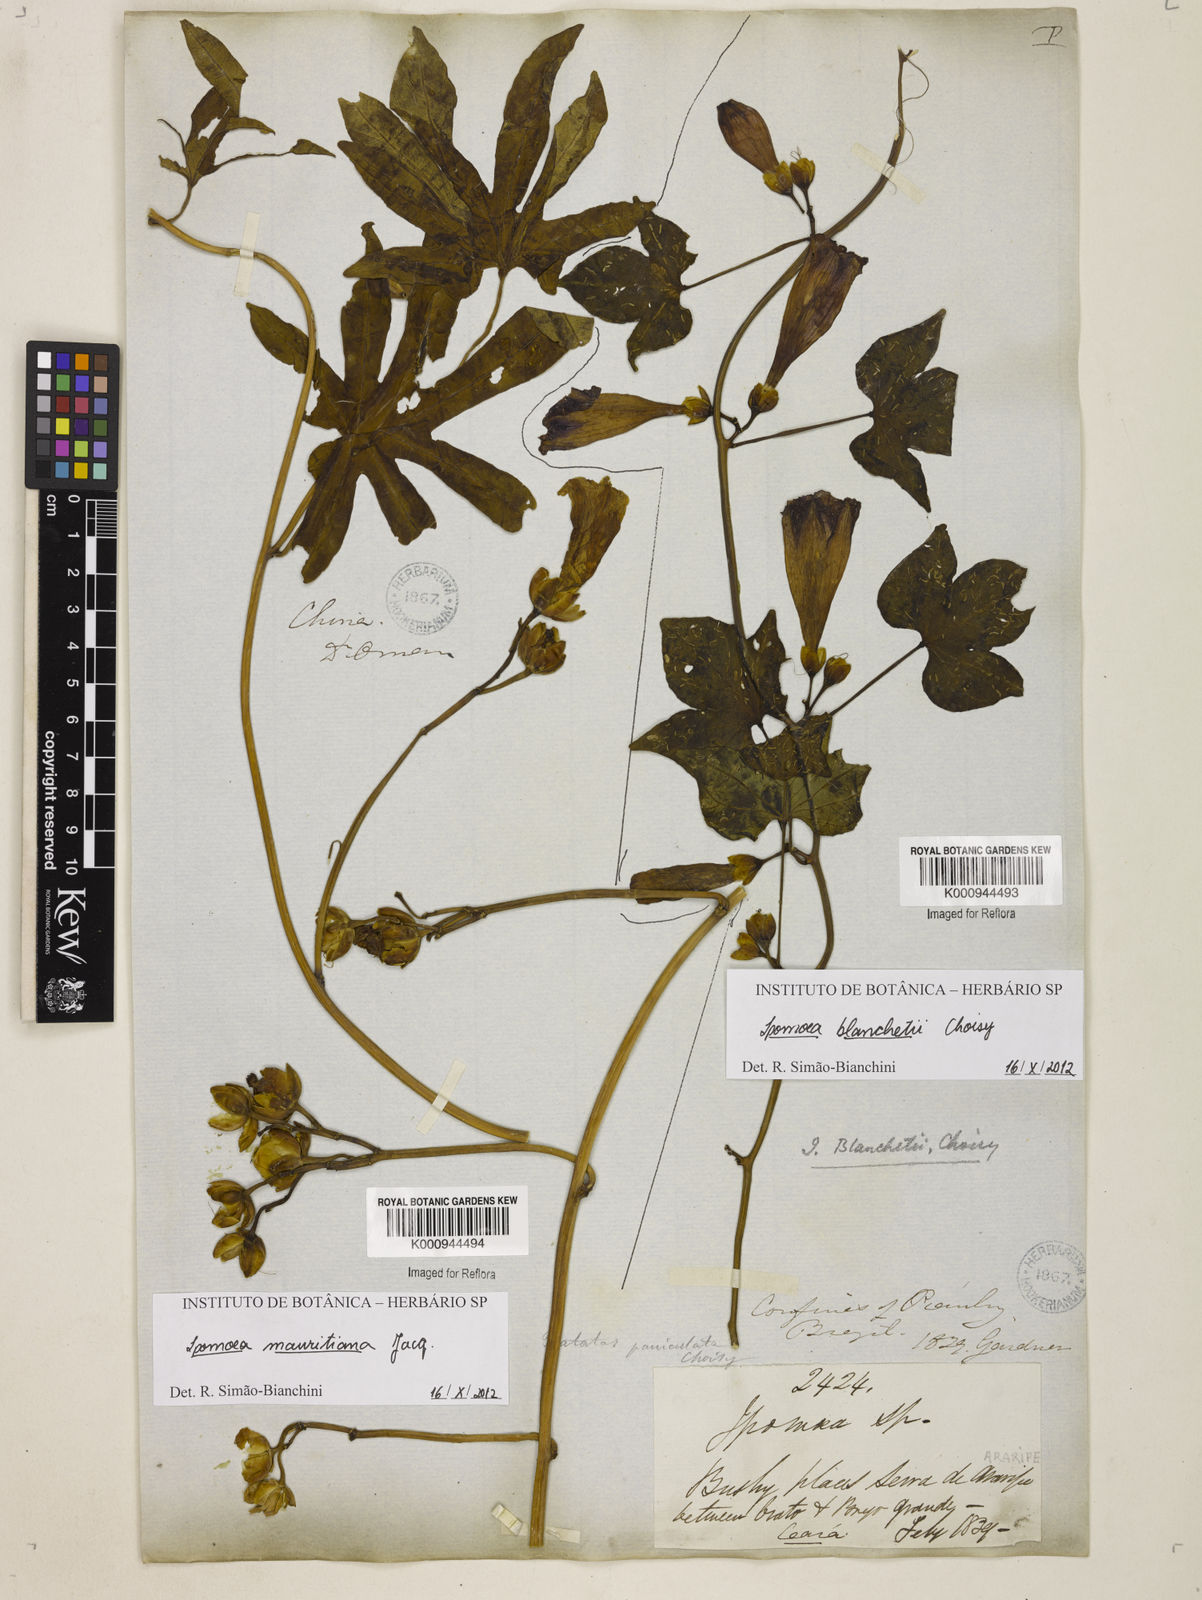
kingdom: Plantae
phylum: Tracheophyta
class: Magnoliopsida
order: Solanales
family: Convolvulaceae
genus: Ipomoea
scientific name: Ipomoea blanchetii
